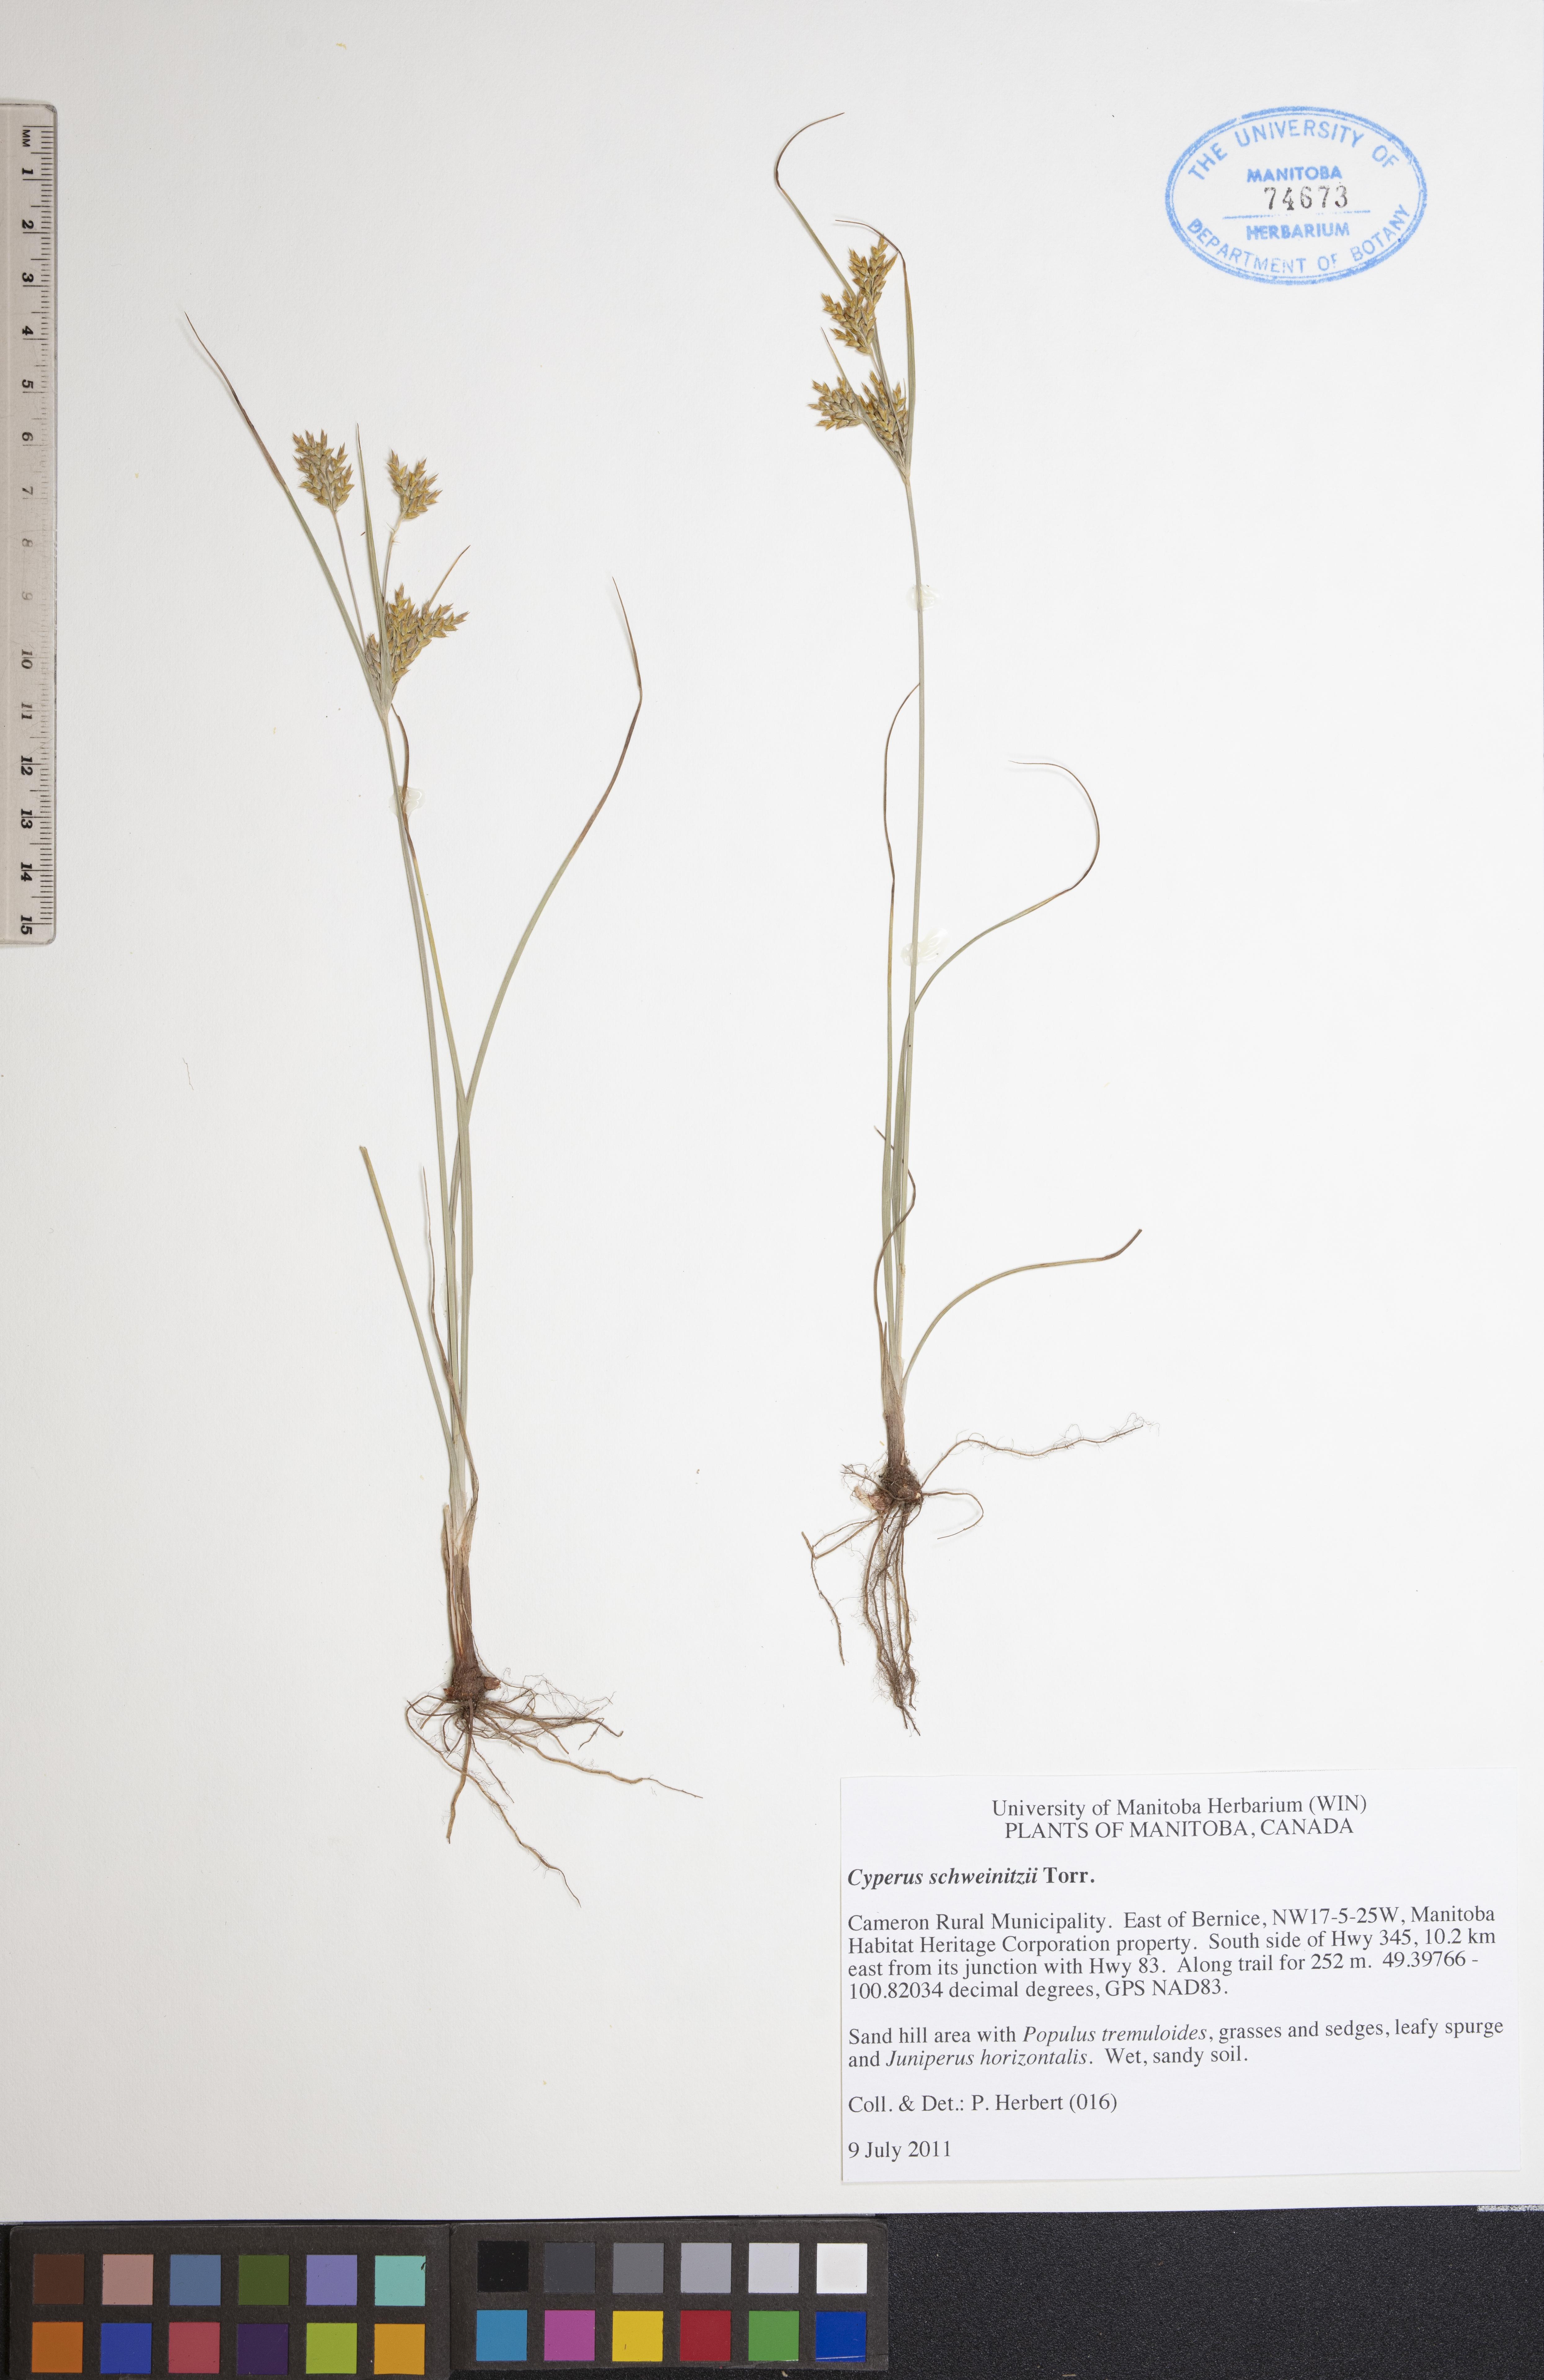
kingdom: Plantae
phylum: Tracheophyta
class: Liliopsida
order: Poales
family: Cyperaceae
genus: Cyperus
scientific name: Cyperus schweinitzii
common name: Schweinitz's cyperus
